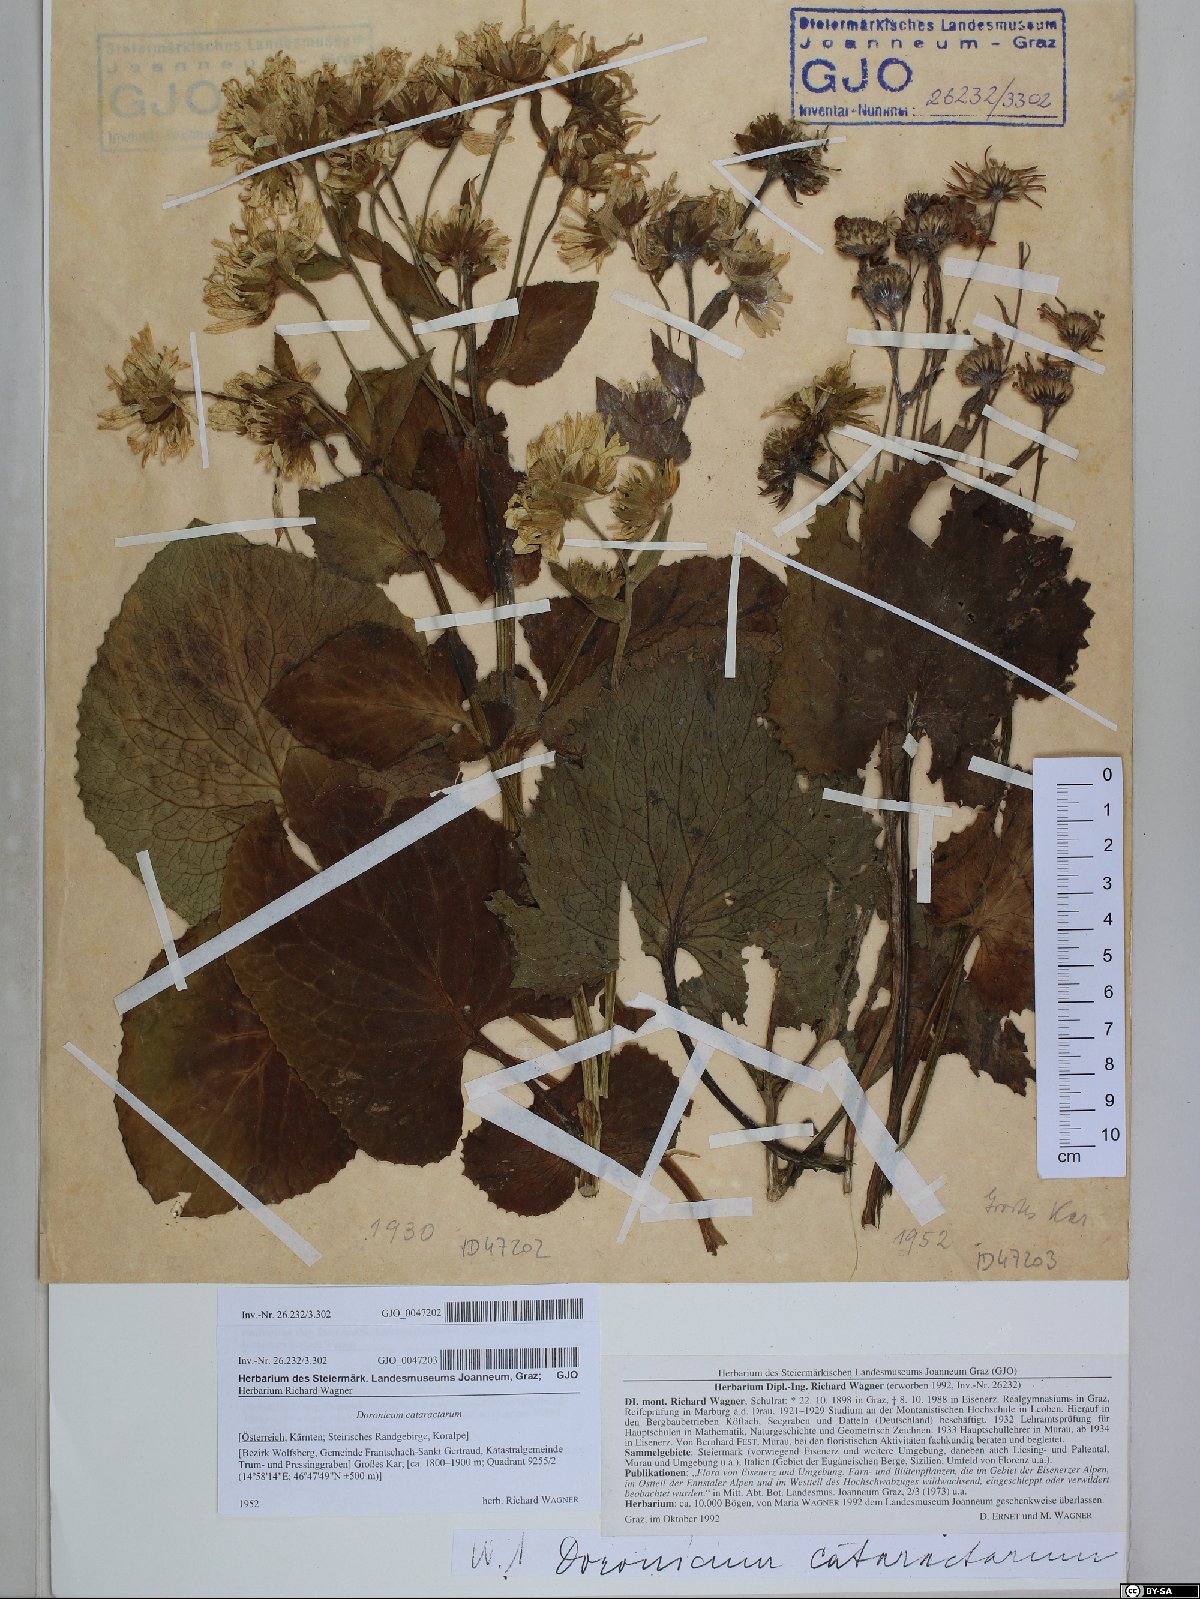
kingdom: Plantae
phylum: Tracheophyta
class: Magnoliopsida
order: Asterales
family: Asteraceae
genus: Doronicum
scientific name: Doronicum cataractarum
